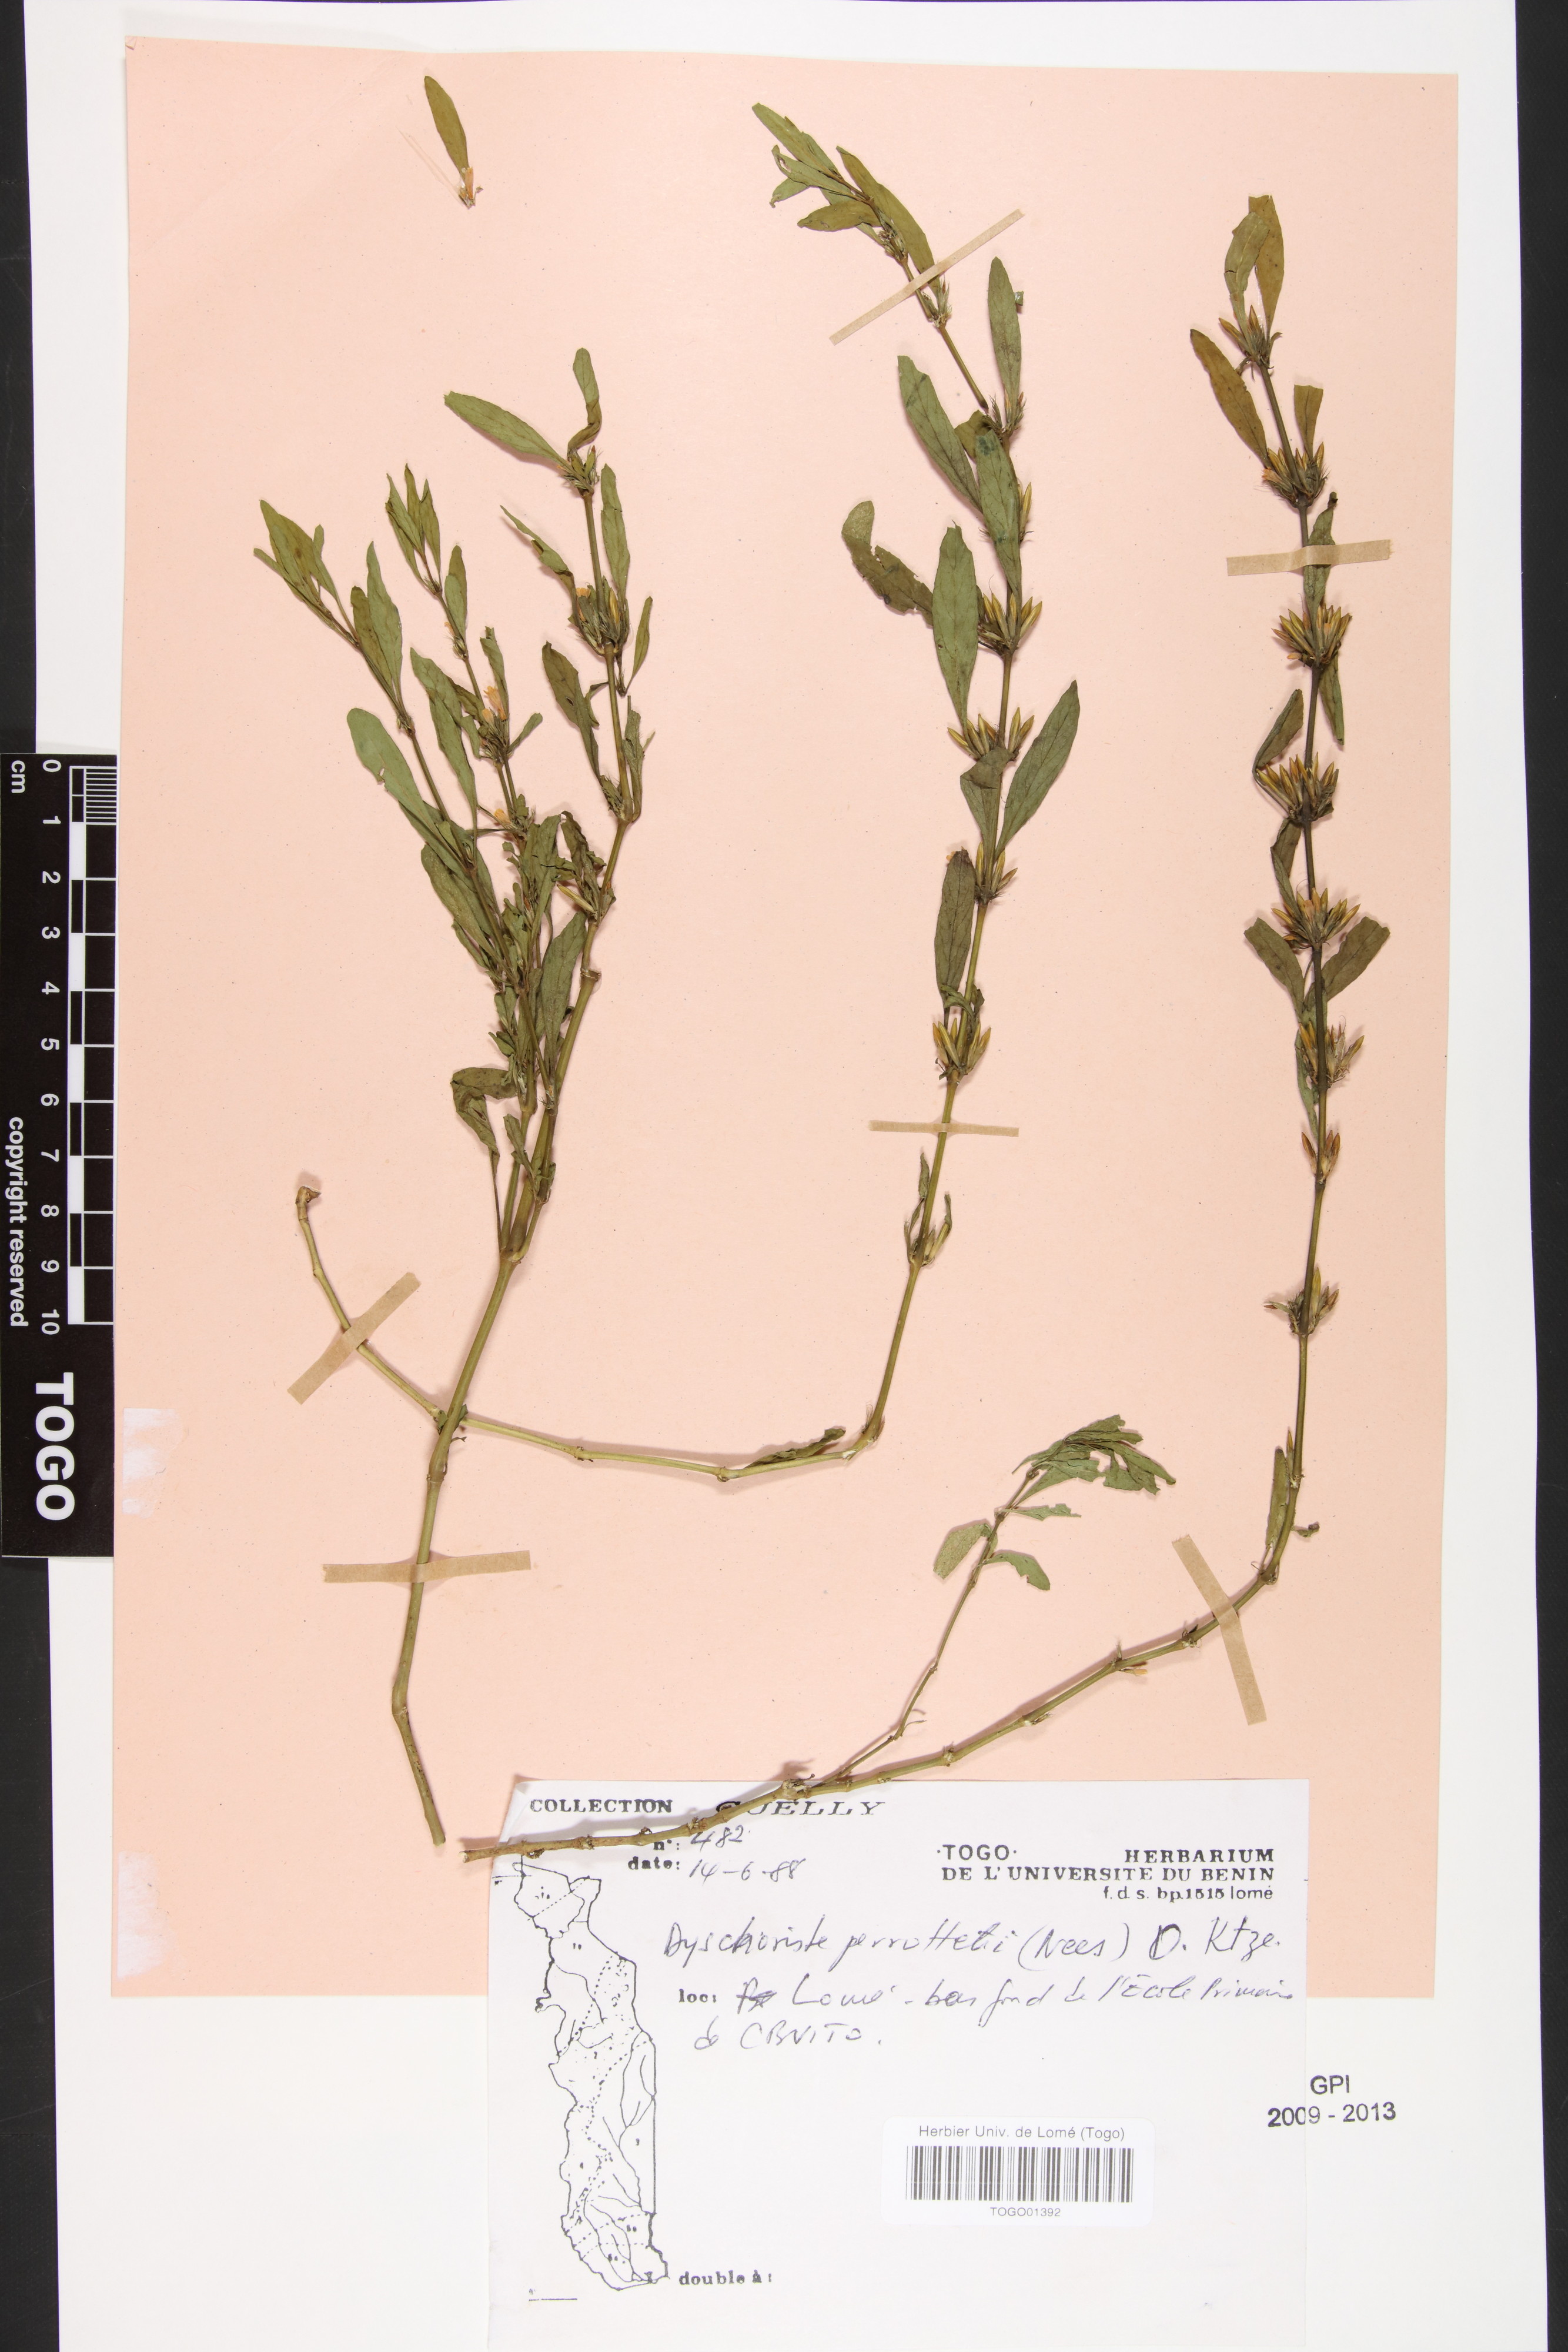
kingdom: Plantae
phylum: Tracheophyta
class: Magnoliopsida
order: Lamiales
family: Acanthaceae
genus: Dyschoriste
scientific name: Dyschoriste nagchana
